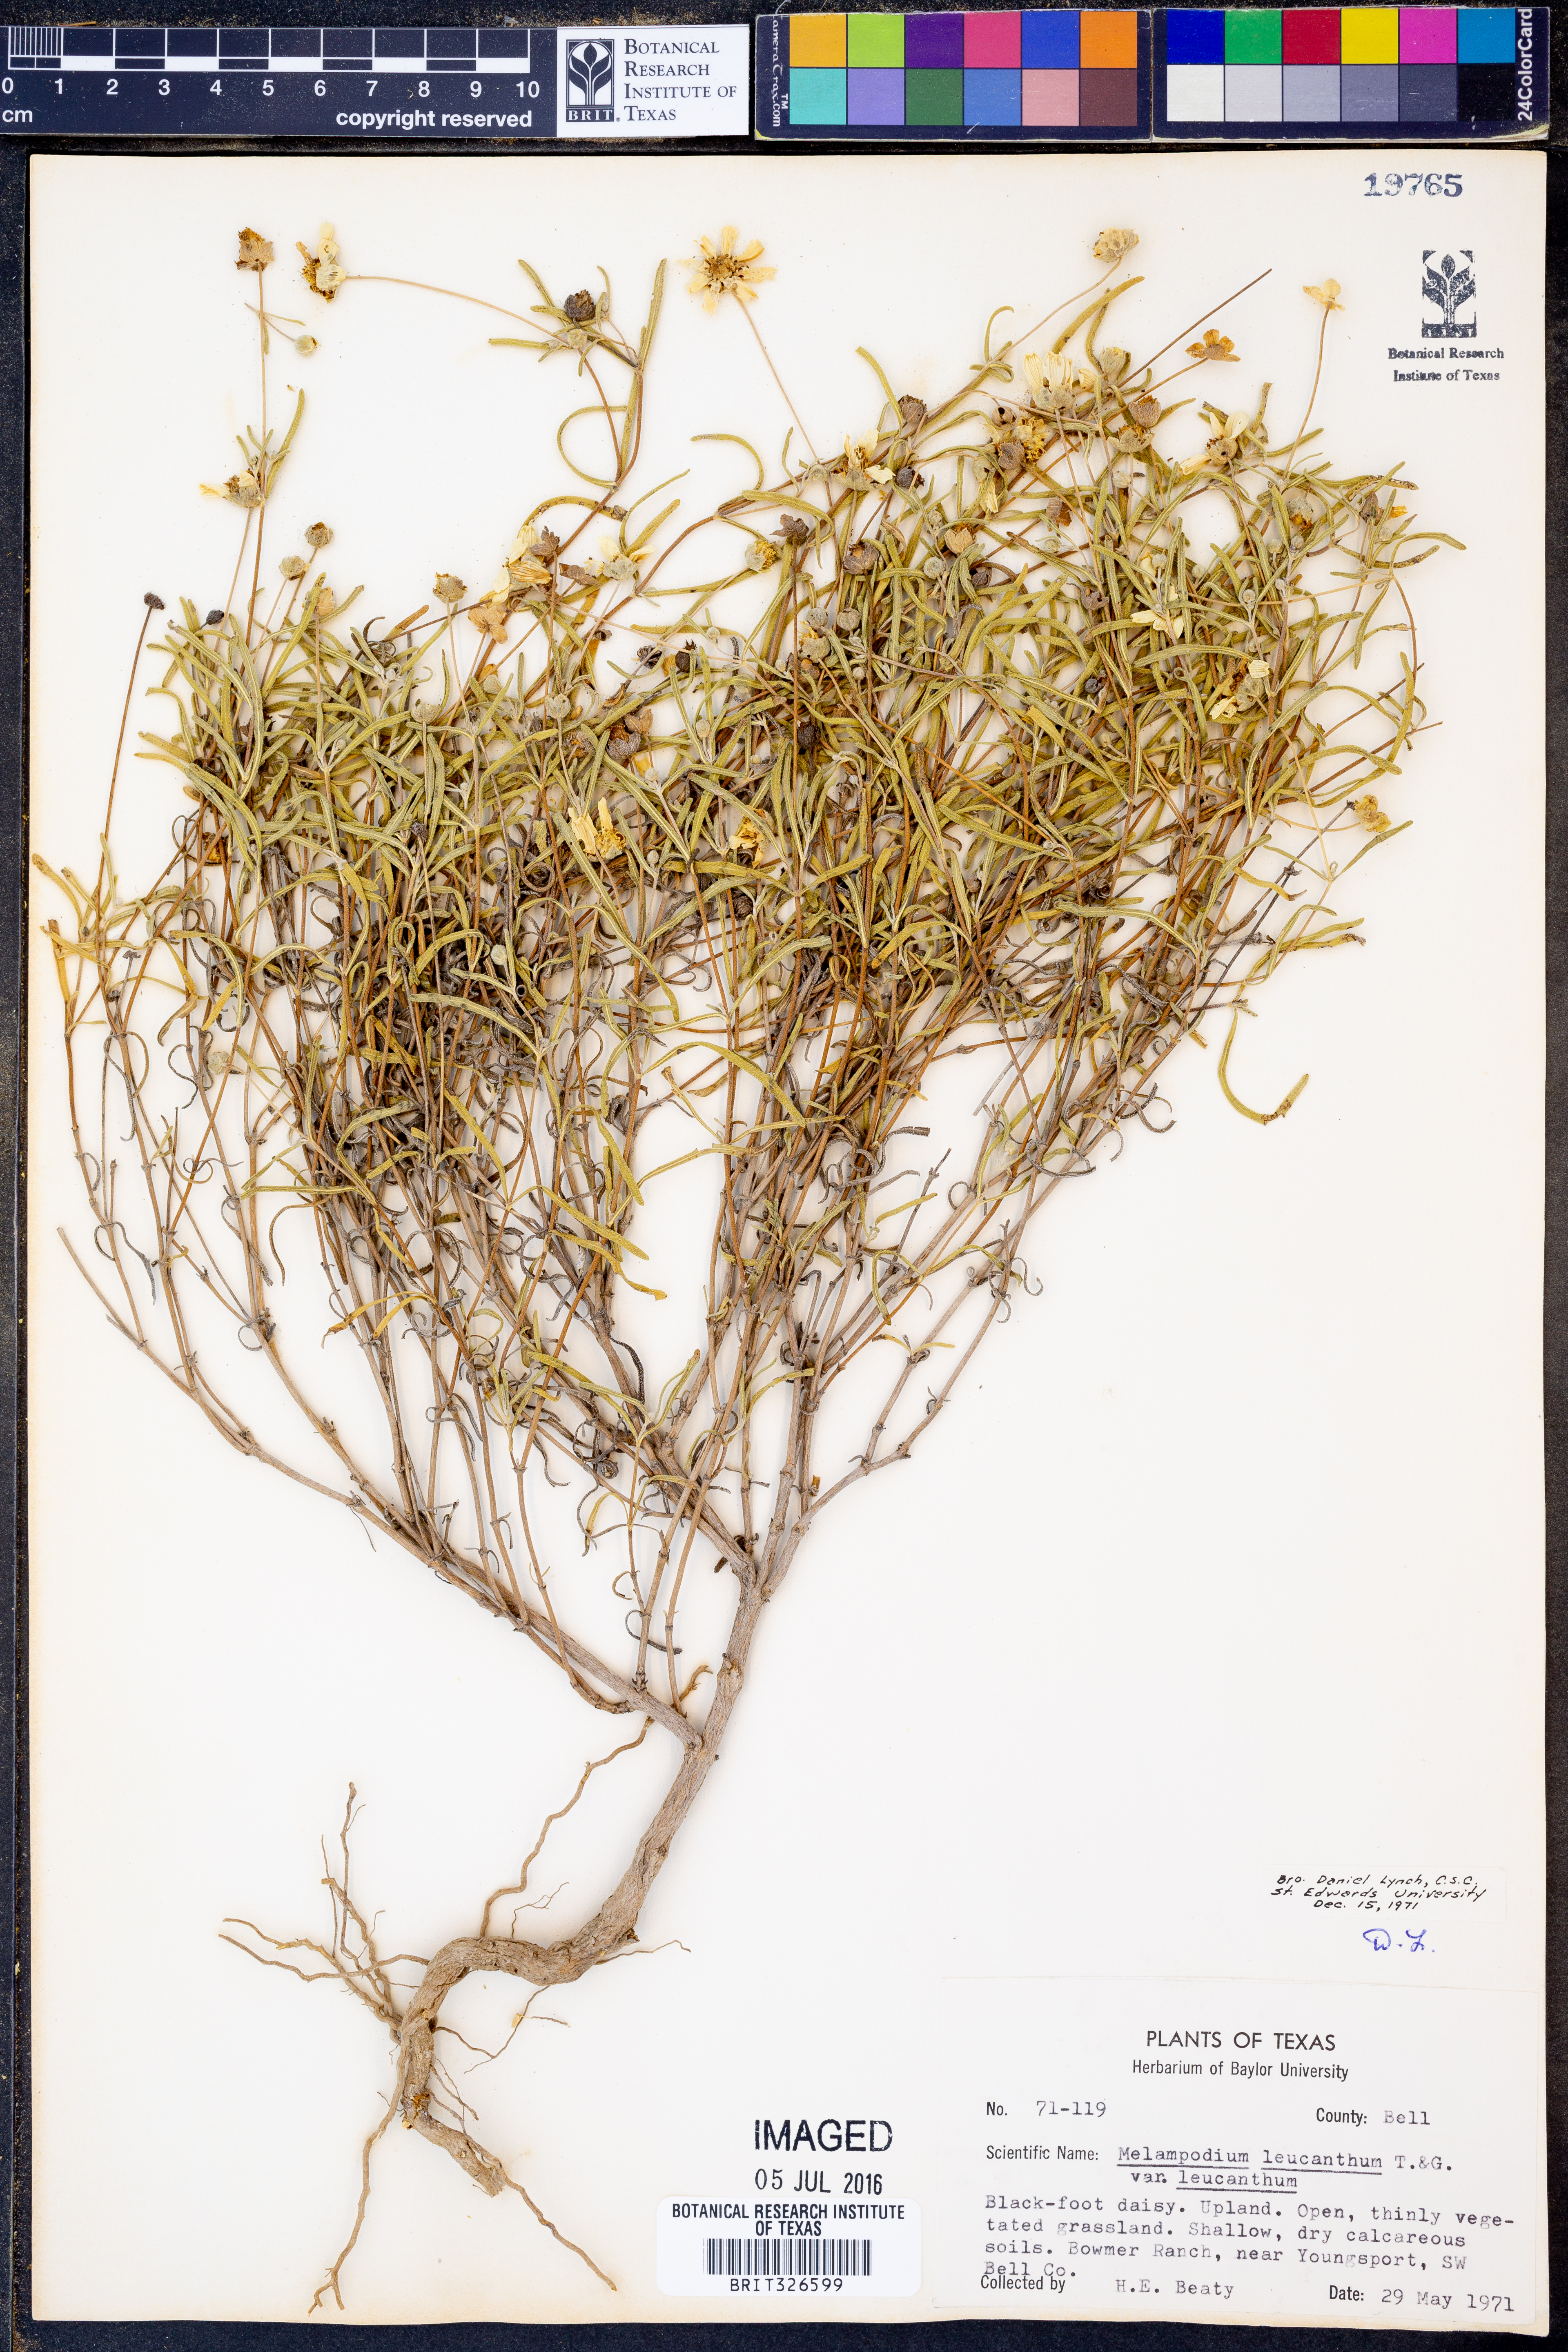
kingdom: Plantae
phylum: Tracheophyta
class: Magnoliopsida
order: Asterales
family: Asteraceae
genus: Melampodium
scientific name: Melampodium leucanthum
